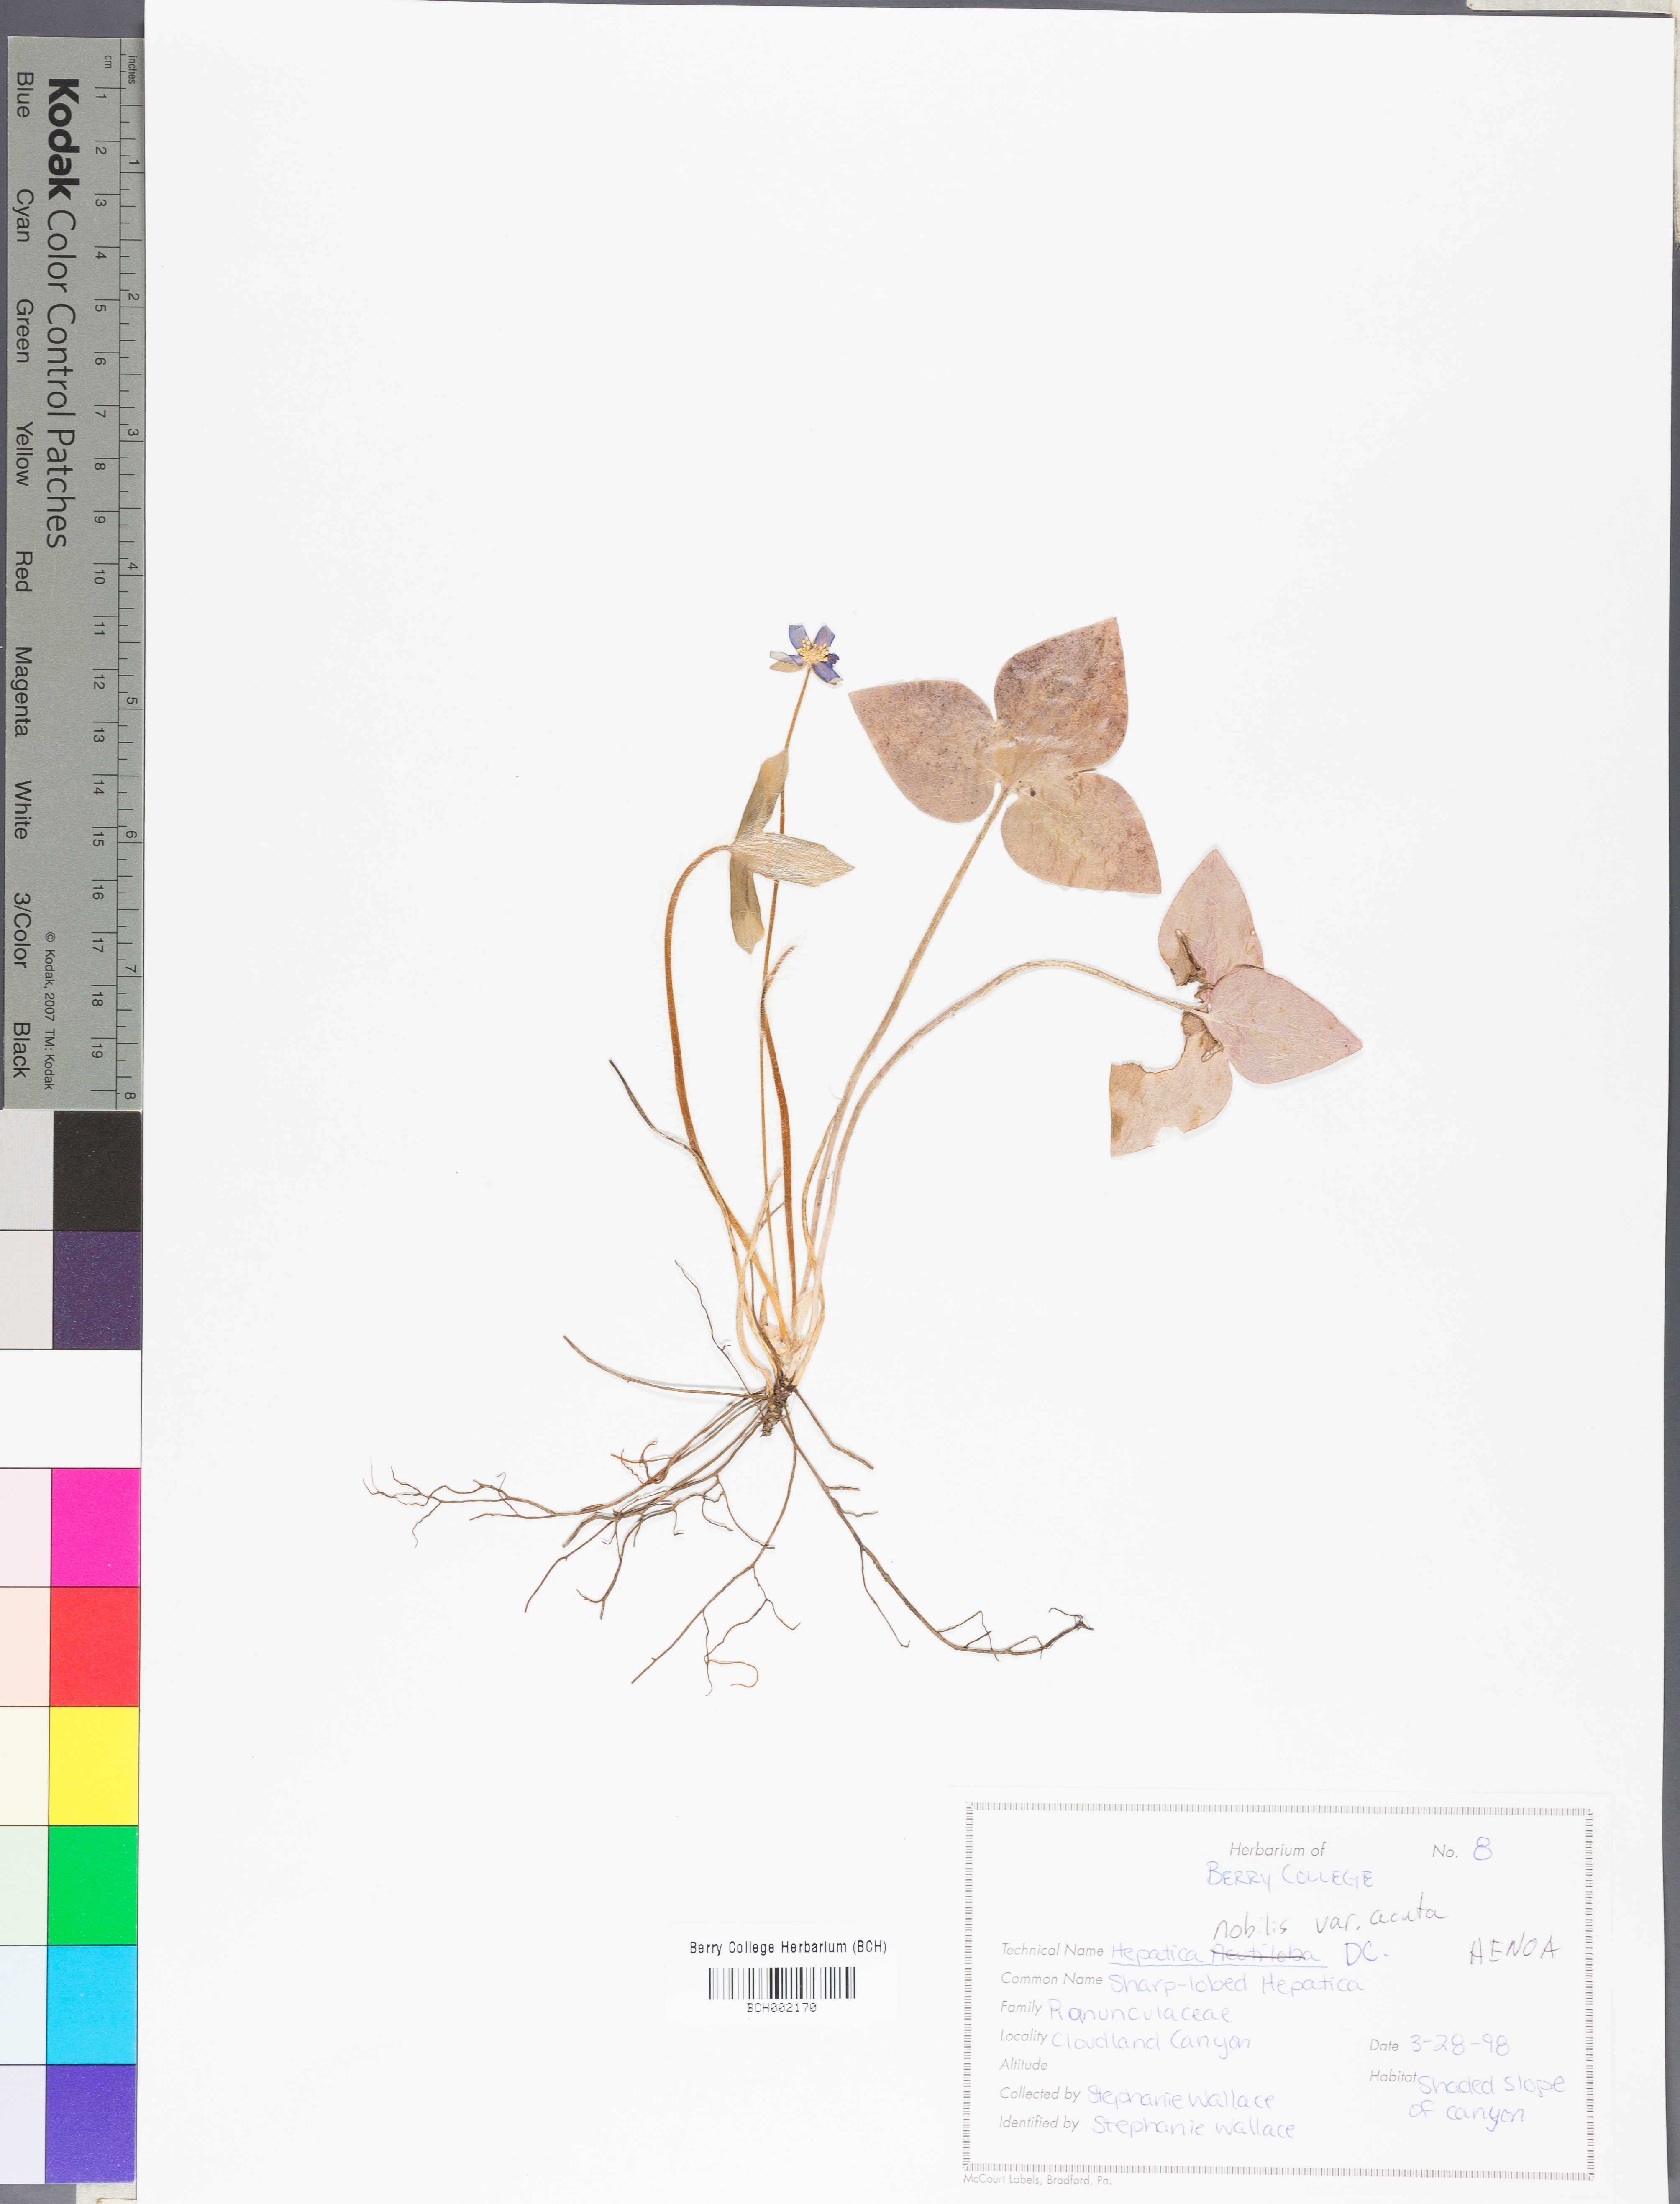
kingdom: Plantae
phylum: Tracheophyta
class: Magnoliopsida
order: Ranunculales
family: Ranunculaceae
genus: Hepatica
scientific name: Hepatica acutiloba
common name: Sharp-lobed hepatica
